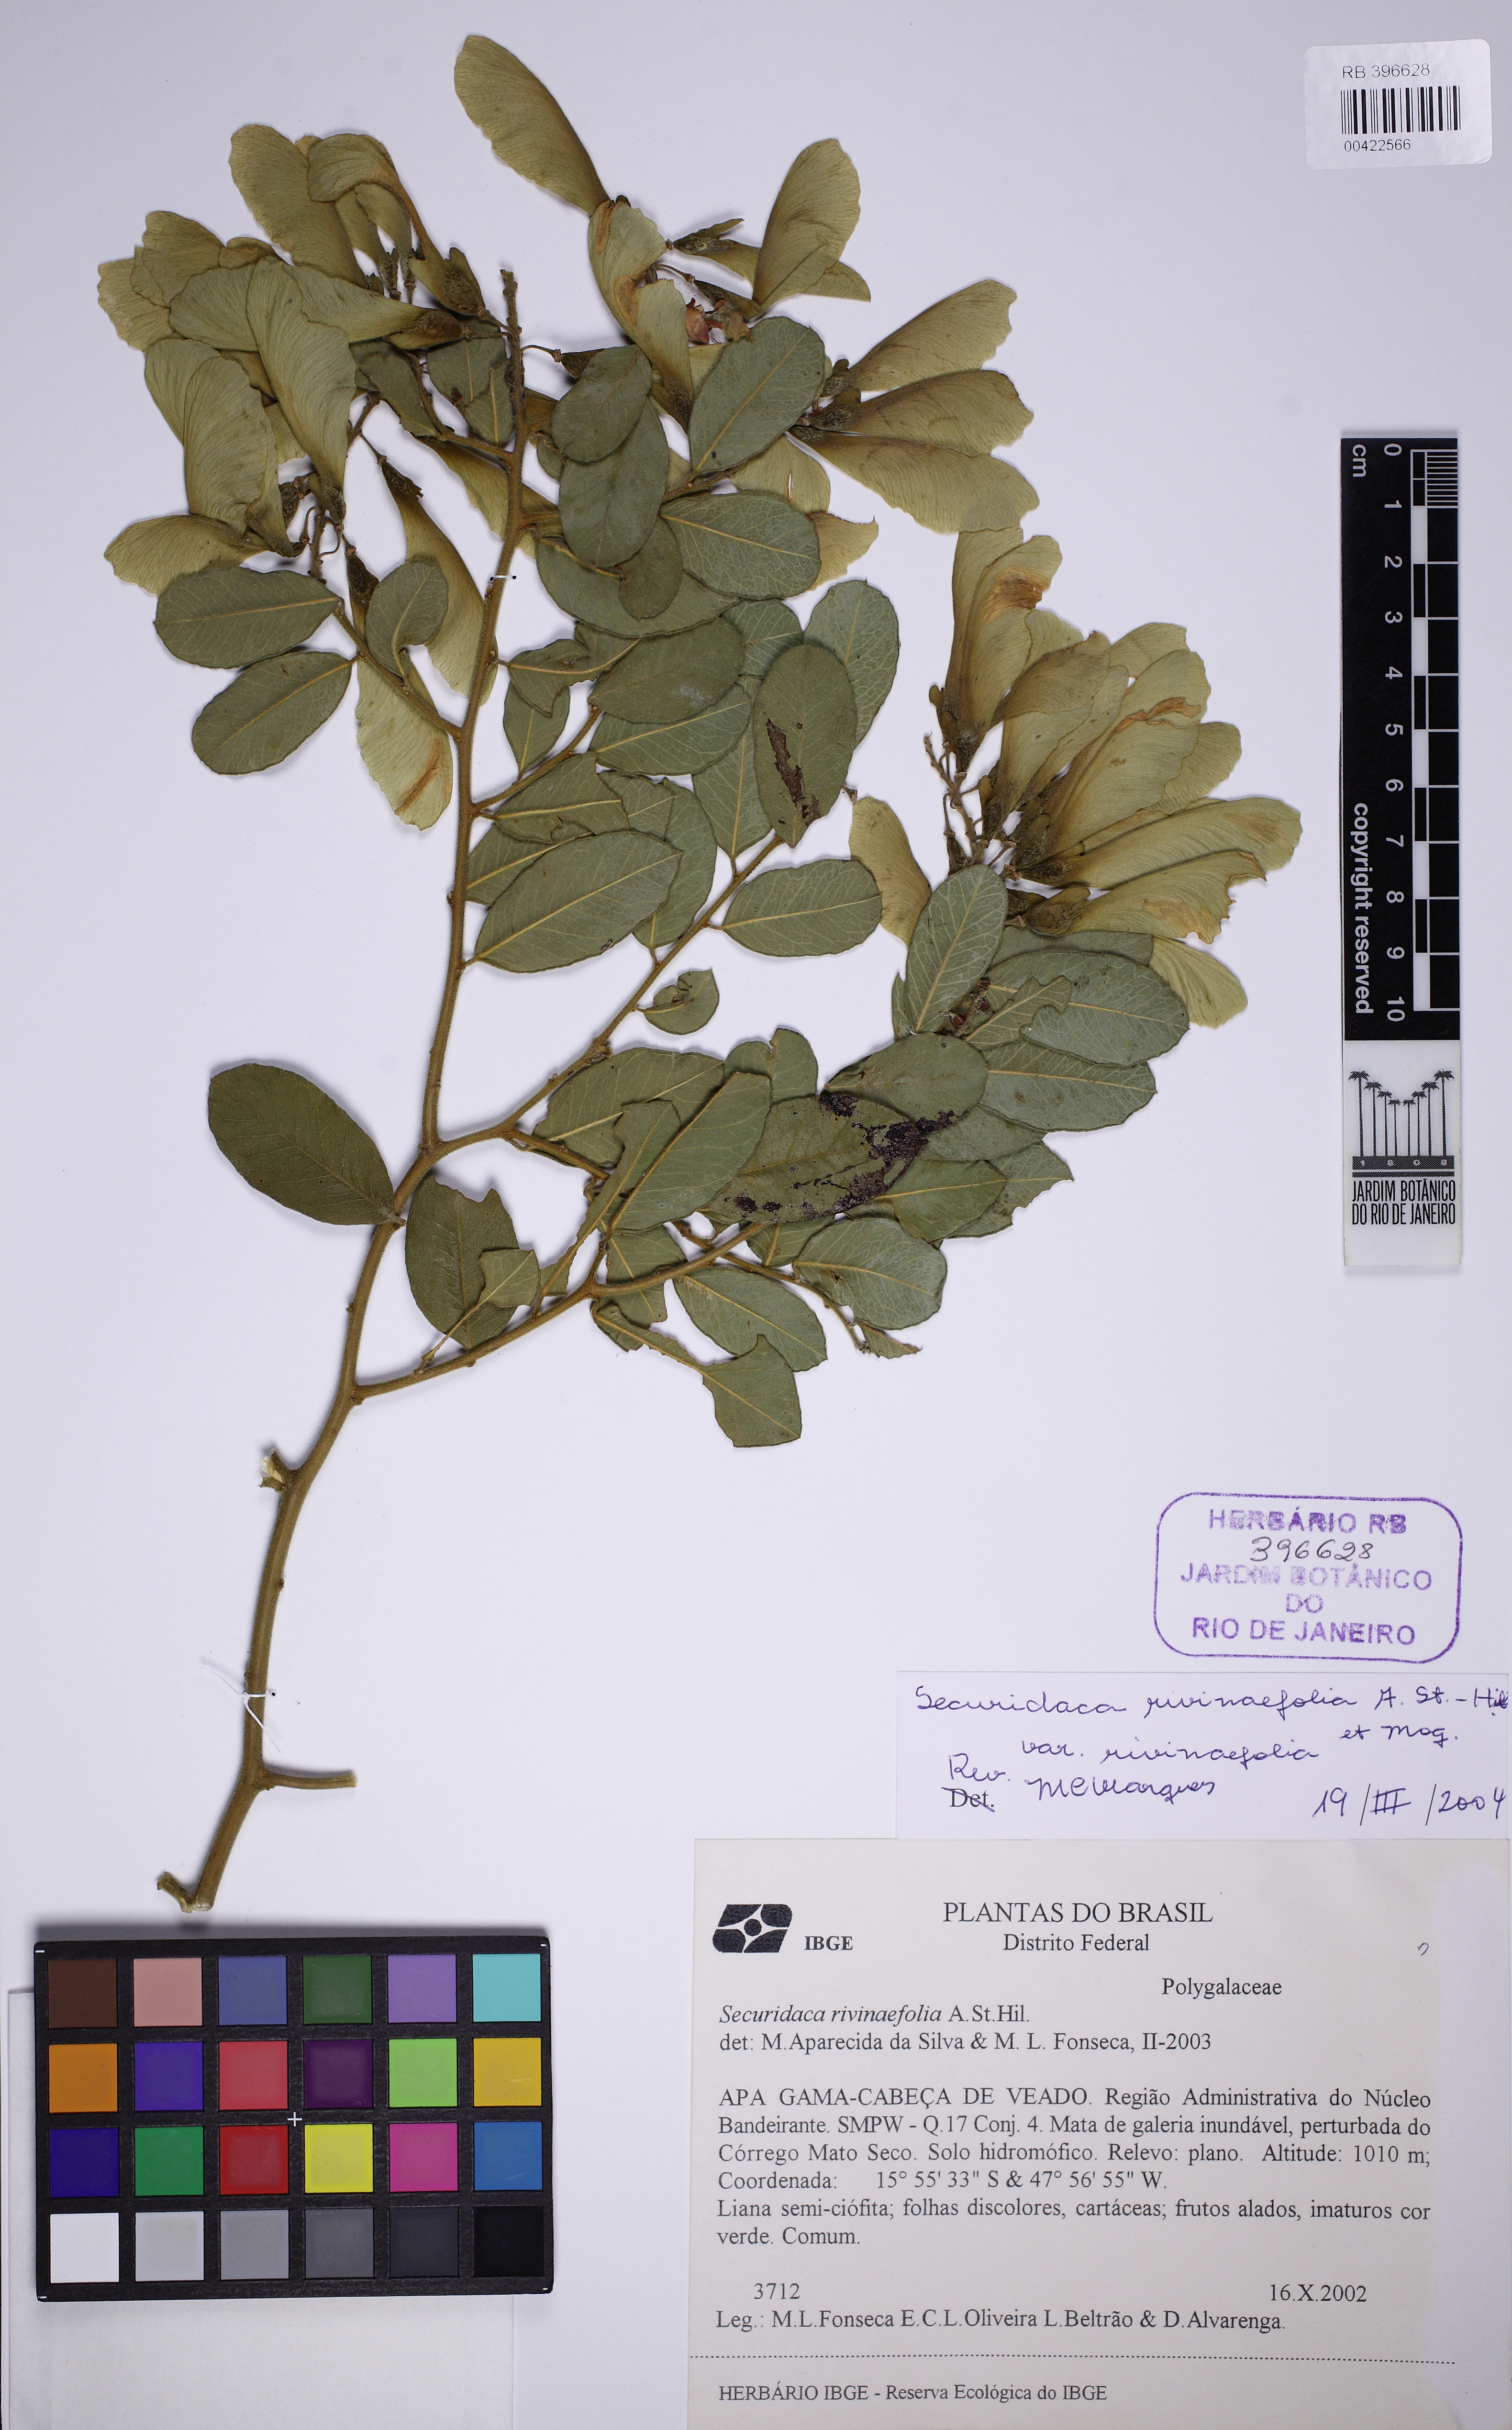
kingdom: Plantae
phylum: Tracheophyta
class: Magnoliopsida
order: Fabales
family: Polygalaceae
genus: Securidaca
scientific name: Securidaca rivinifolia
